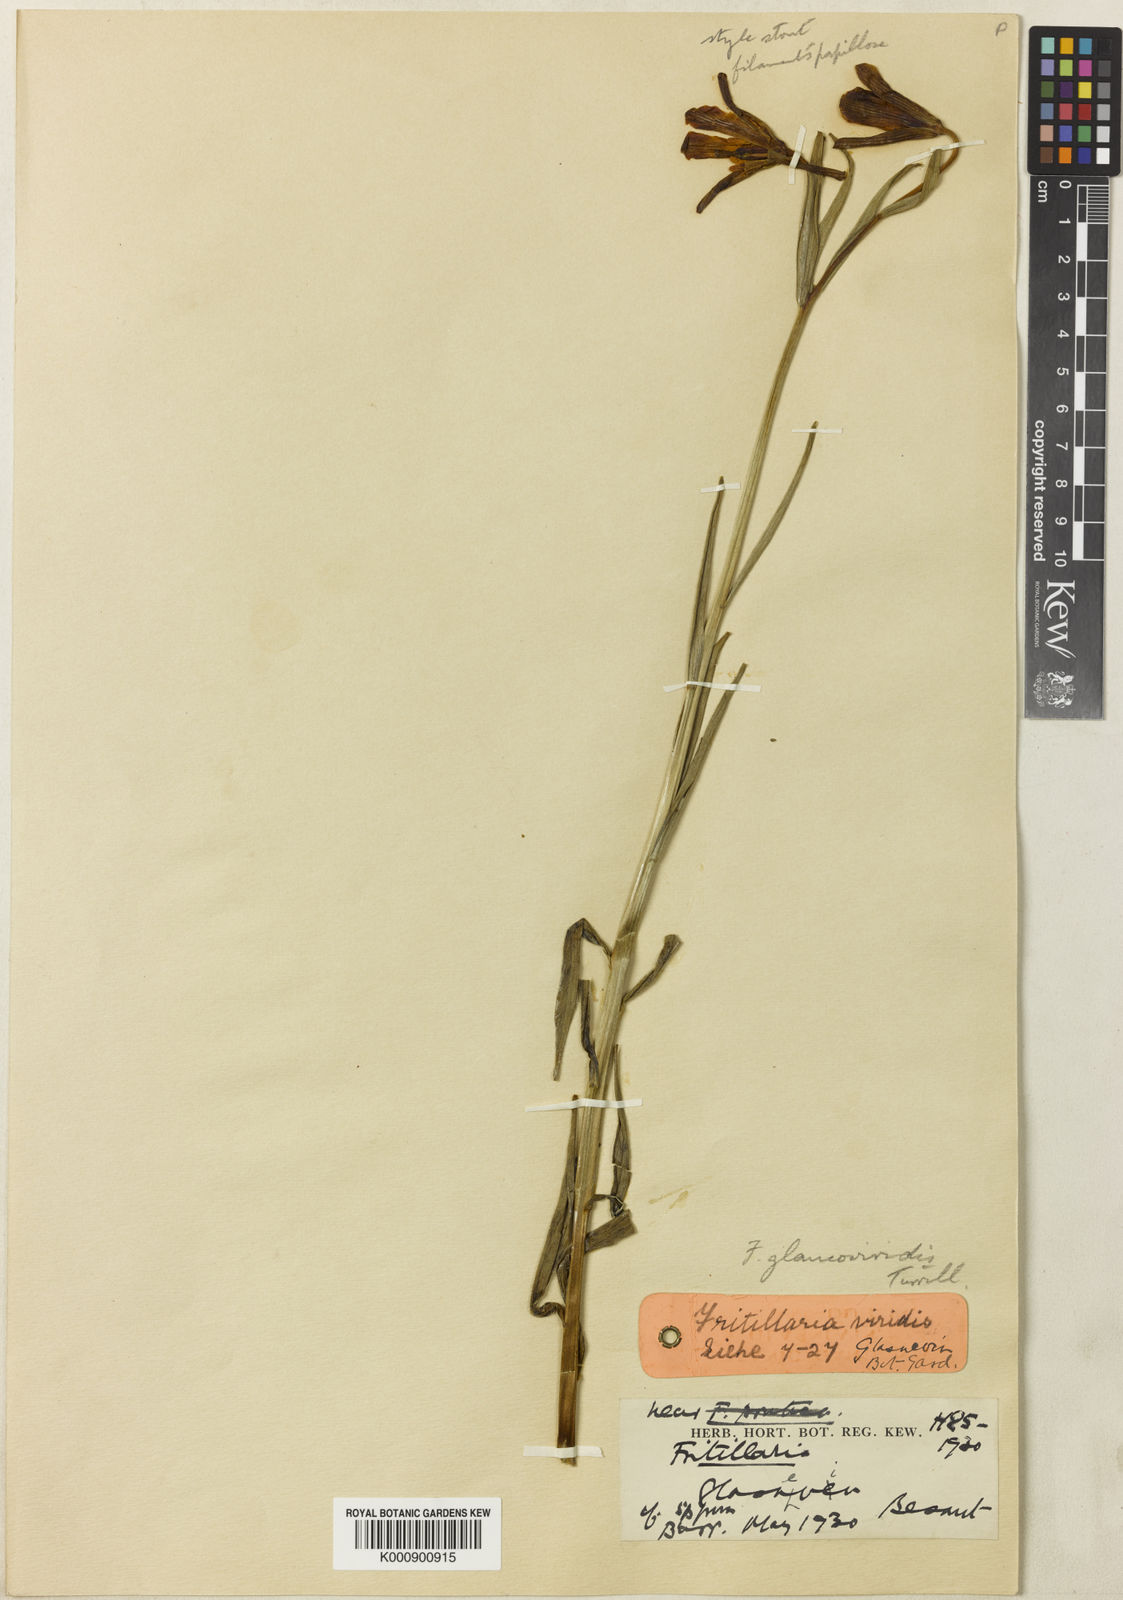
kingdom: Plantae
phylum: Tracheophyta
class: Liliopsida
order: Liliales
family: Liliaceae
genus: Fritillaria
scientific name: Fritillaria alfredae
